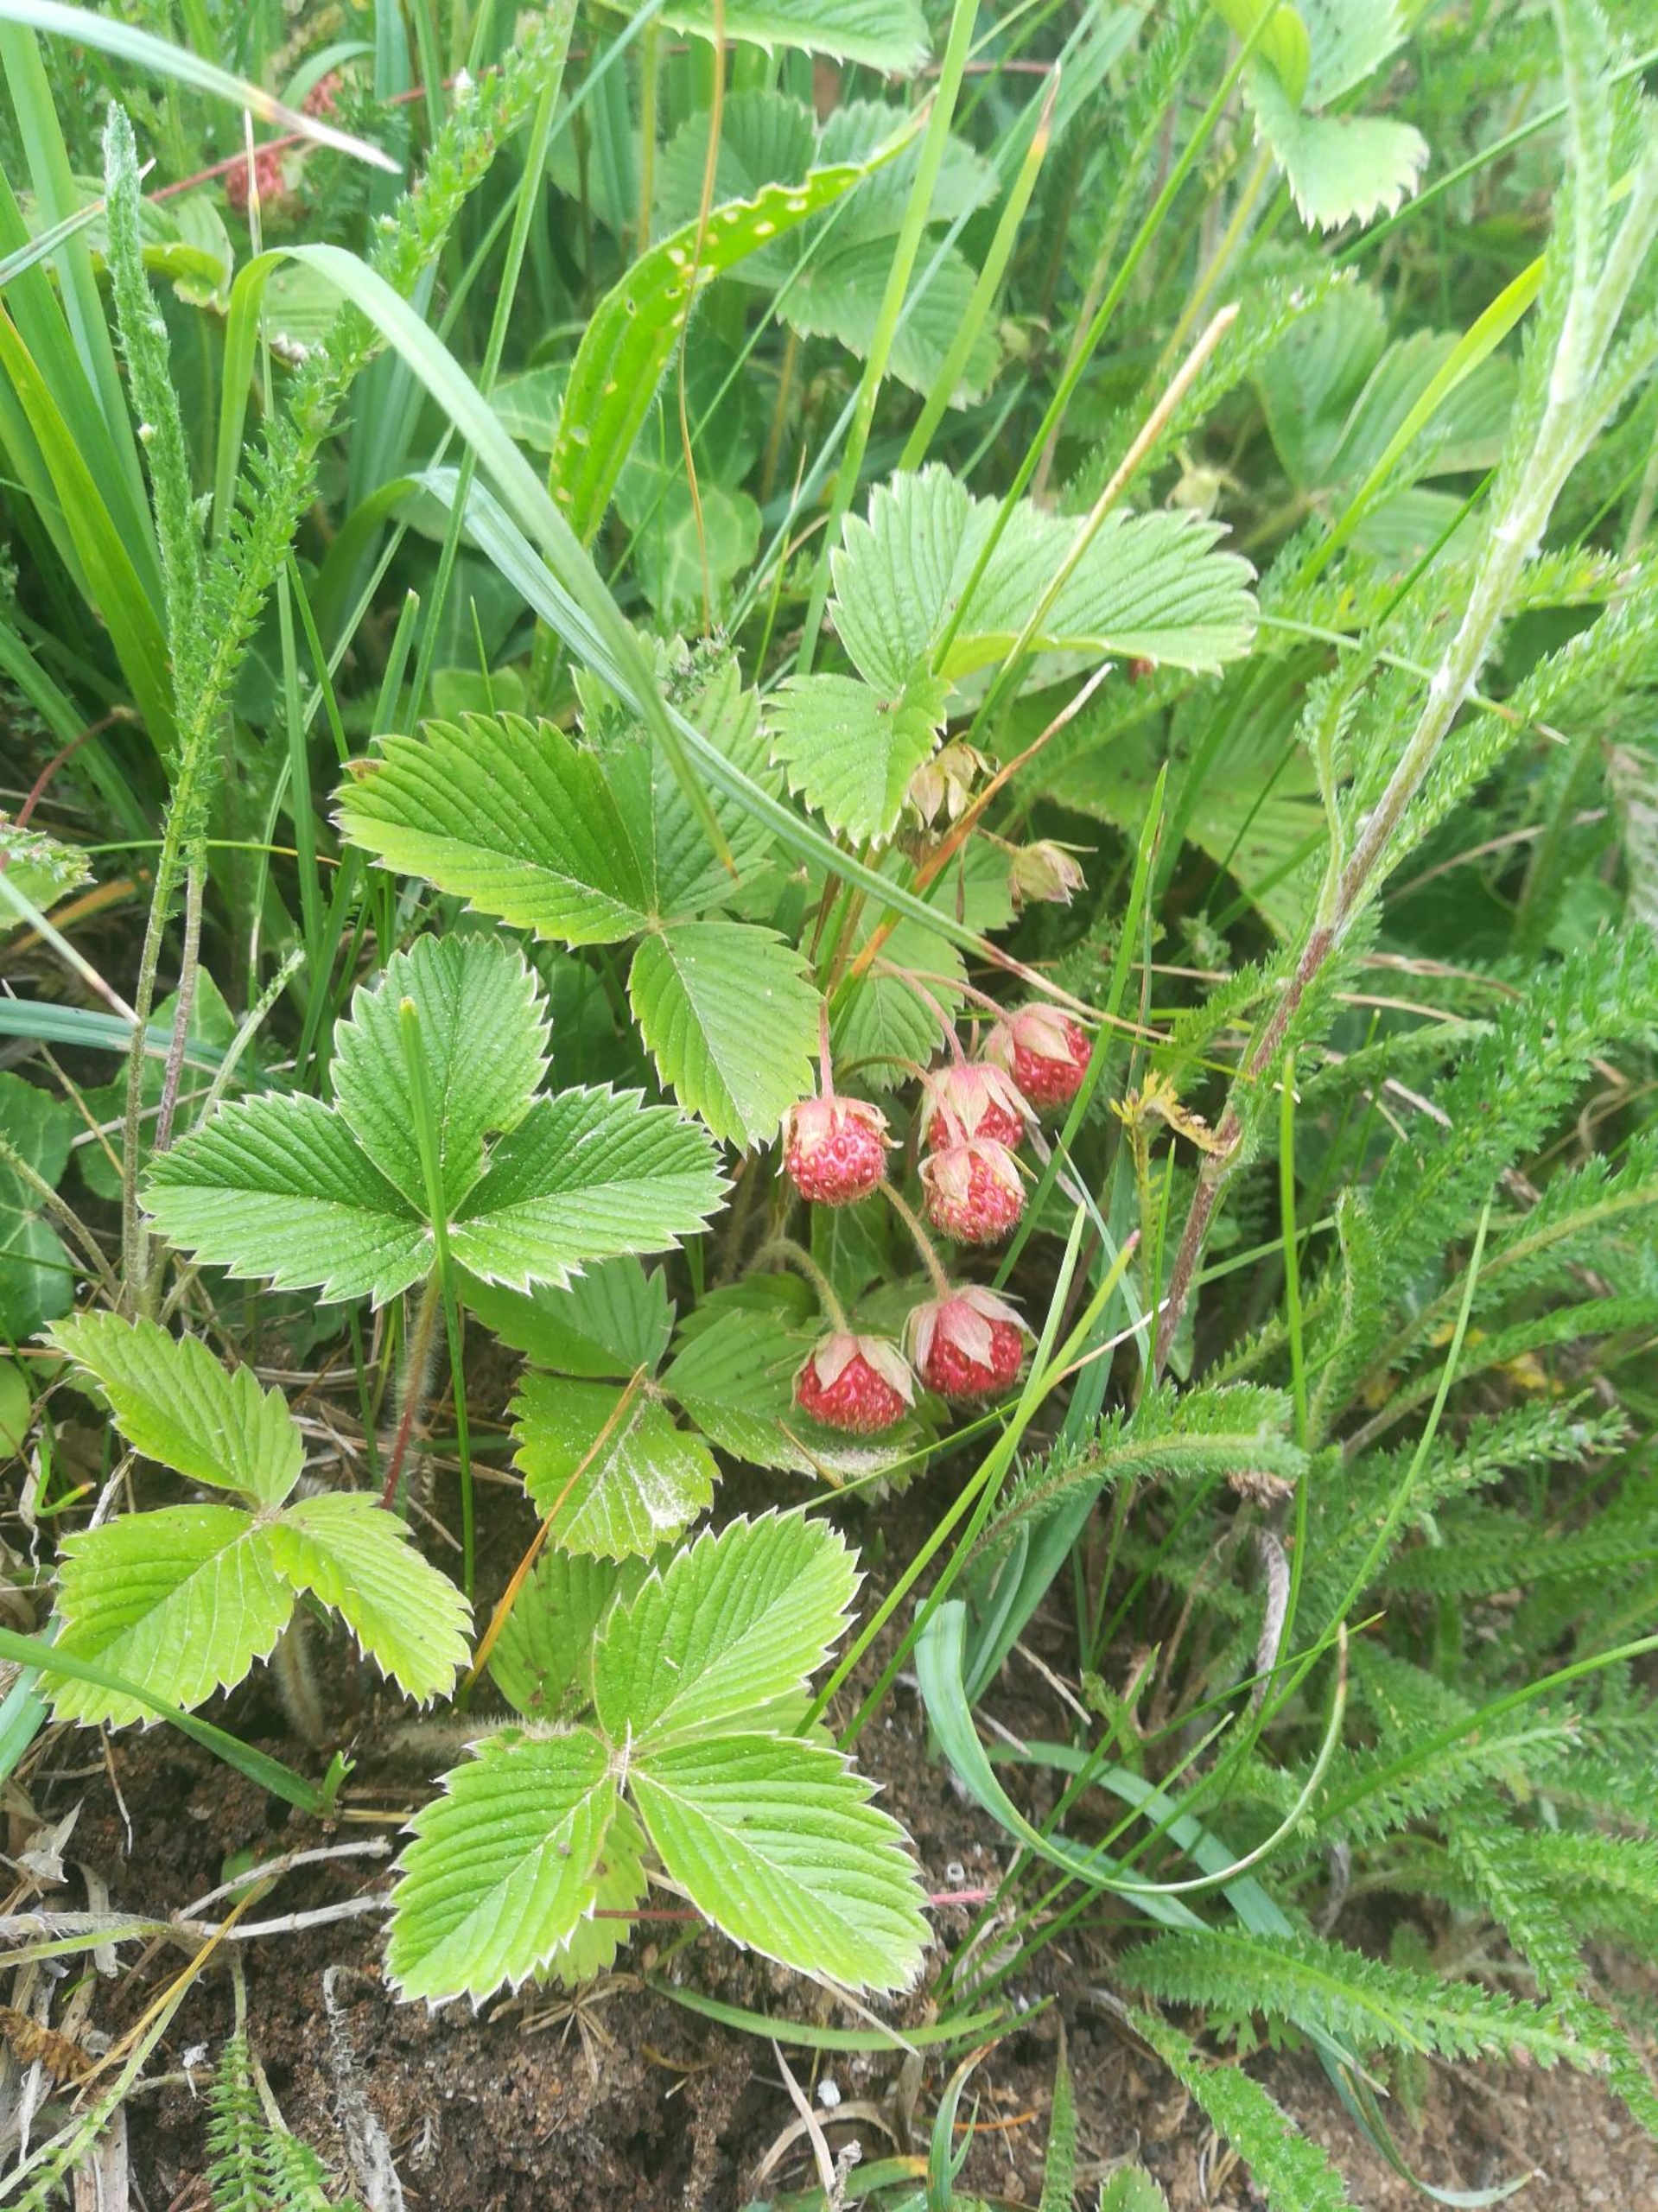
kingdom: Plantae
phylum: Tracheophyta
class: Magnoliopsida
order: Rosales
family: Rosaceae
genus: Fragaria
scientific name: Fragaria viridis
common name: Bakke-jordbær
